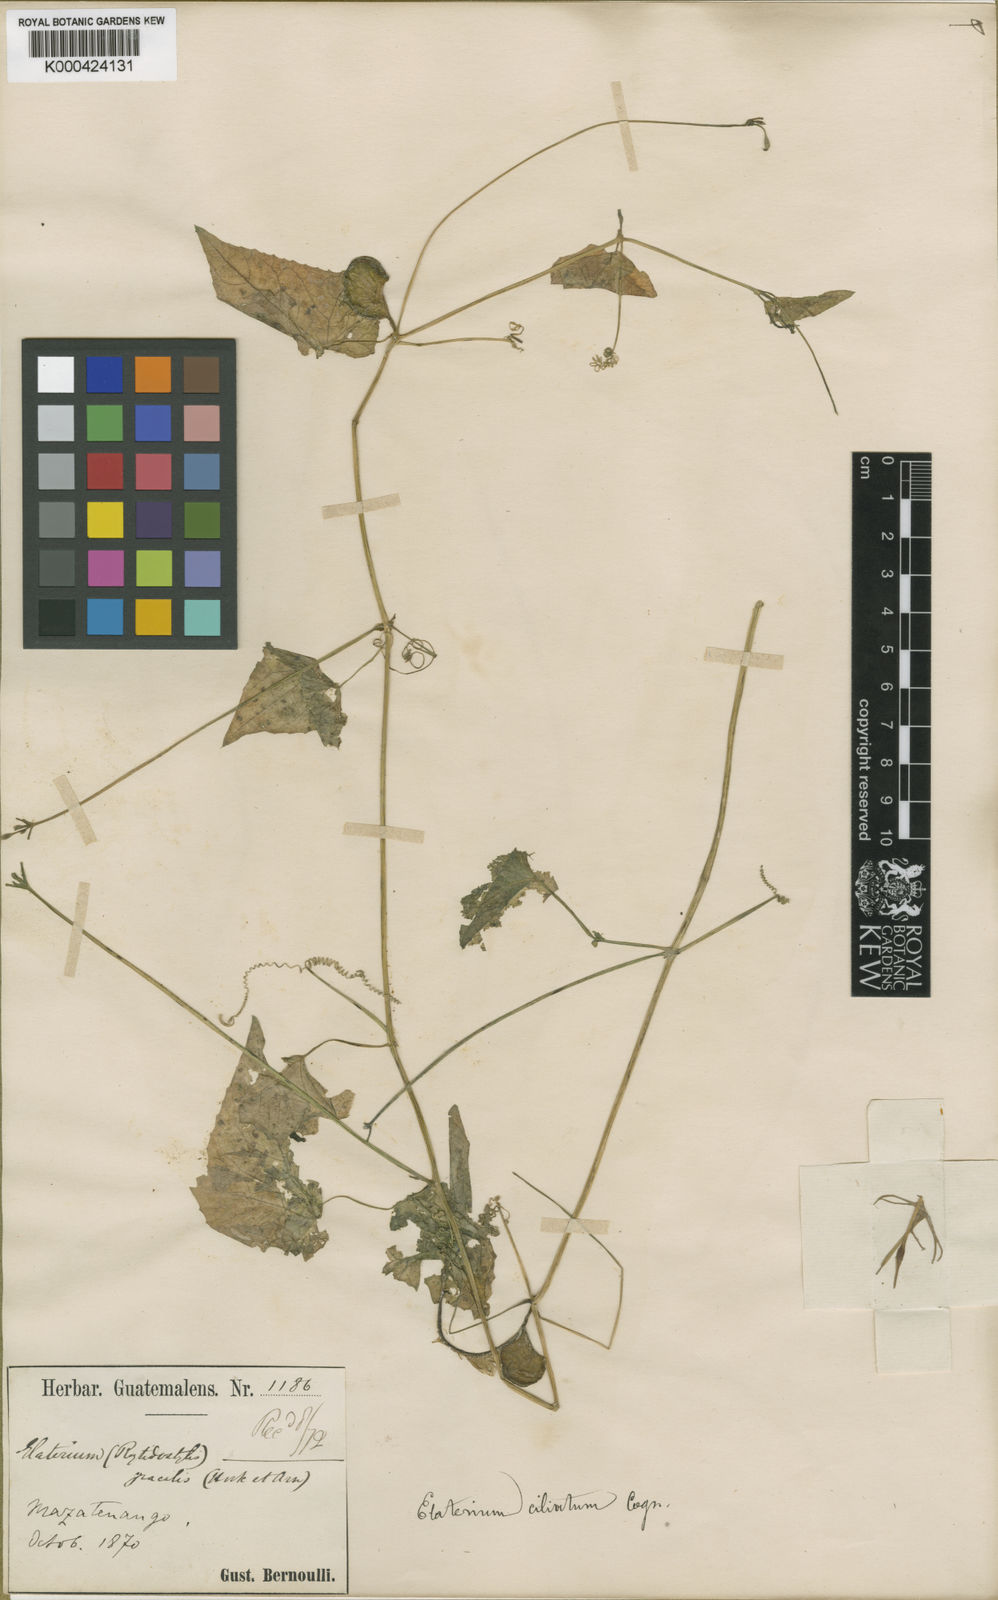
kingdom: Plantae
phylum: Tracheophyta
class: Magnoliopsida
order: Cucurbitales
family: Cucurbitaceae
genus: Cyclanthera
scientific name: Cyclanthera filiformis
